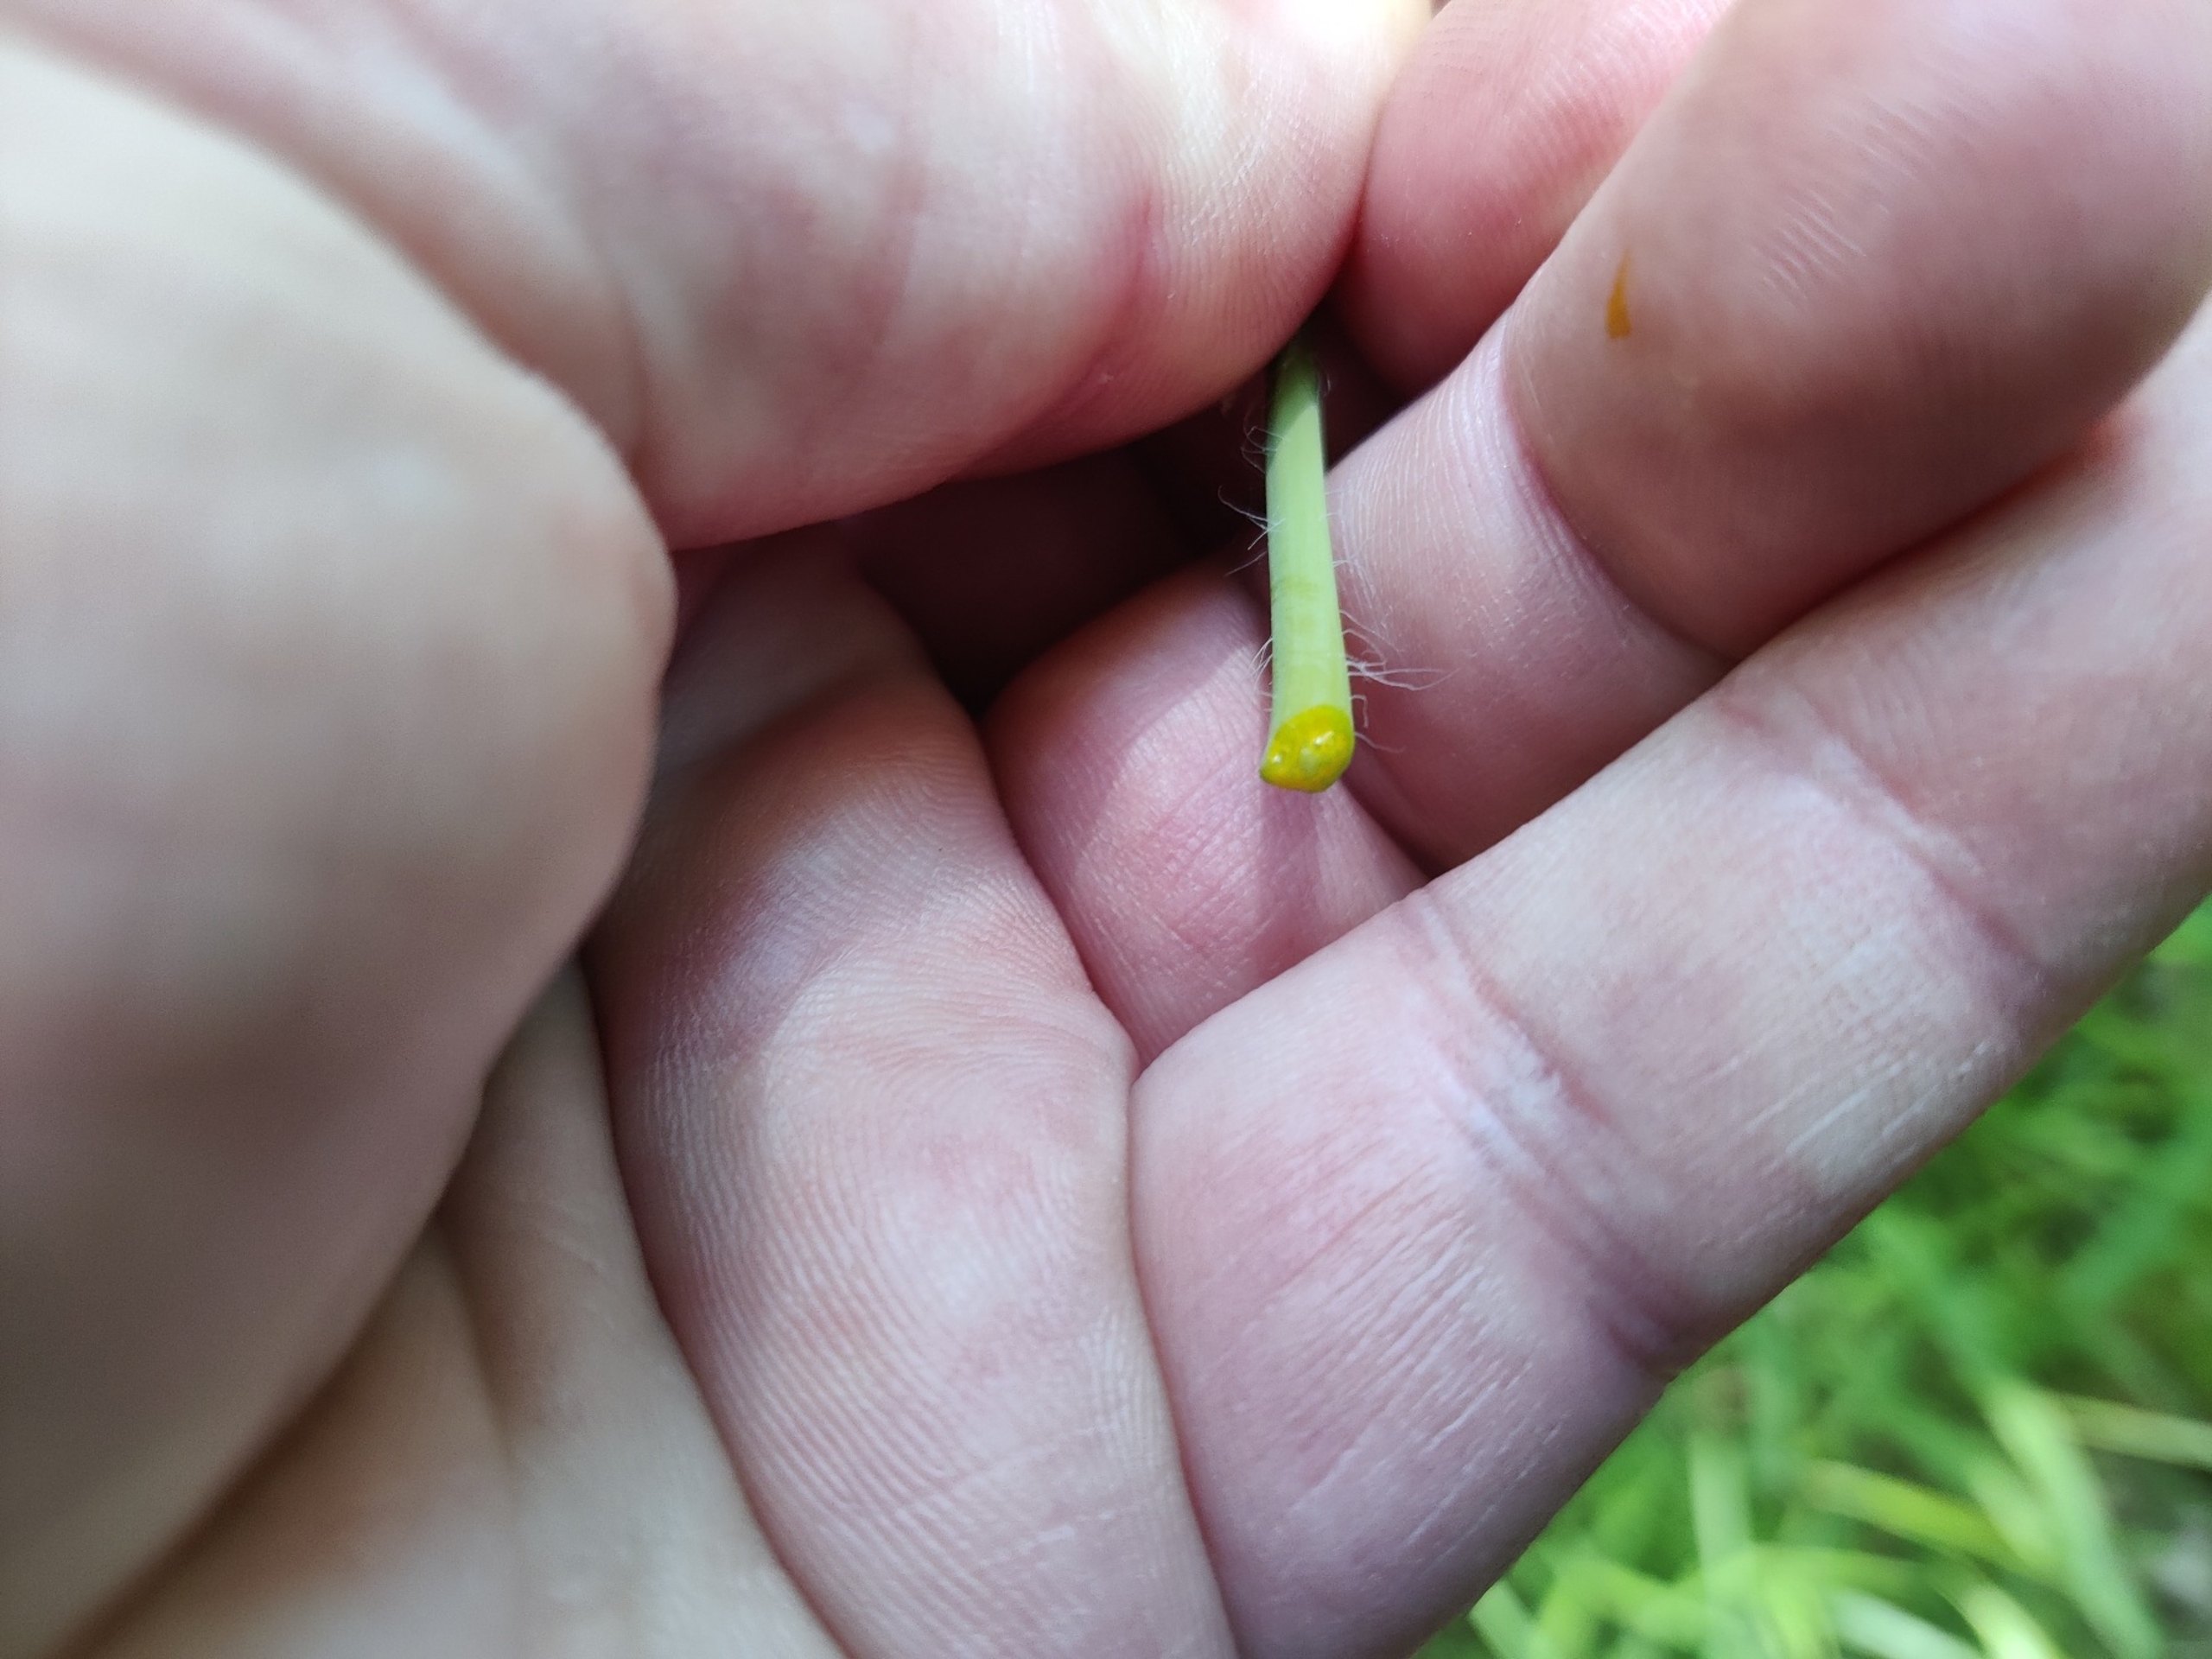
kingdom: Plantae
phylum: Tracheophyta
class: Magnoliopsida
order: Ranunculales
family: Papaveraceae
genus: Chelidonium
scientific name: Chelidonium majus
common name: Svaleurt
